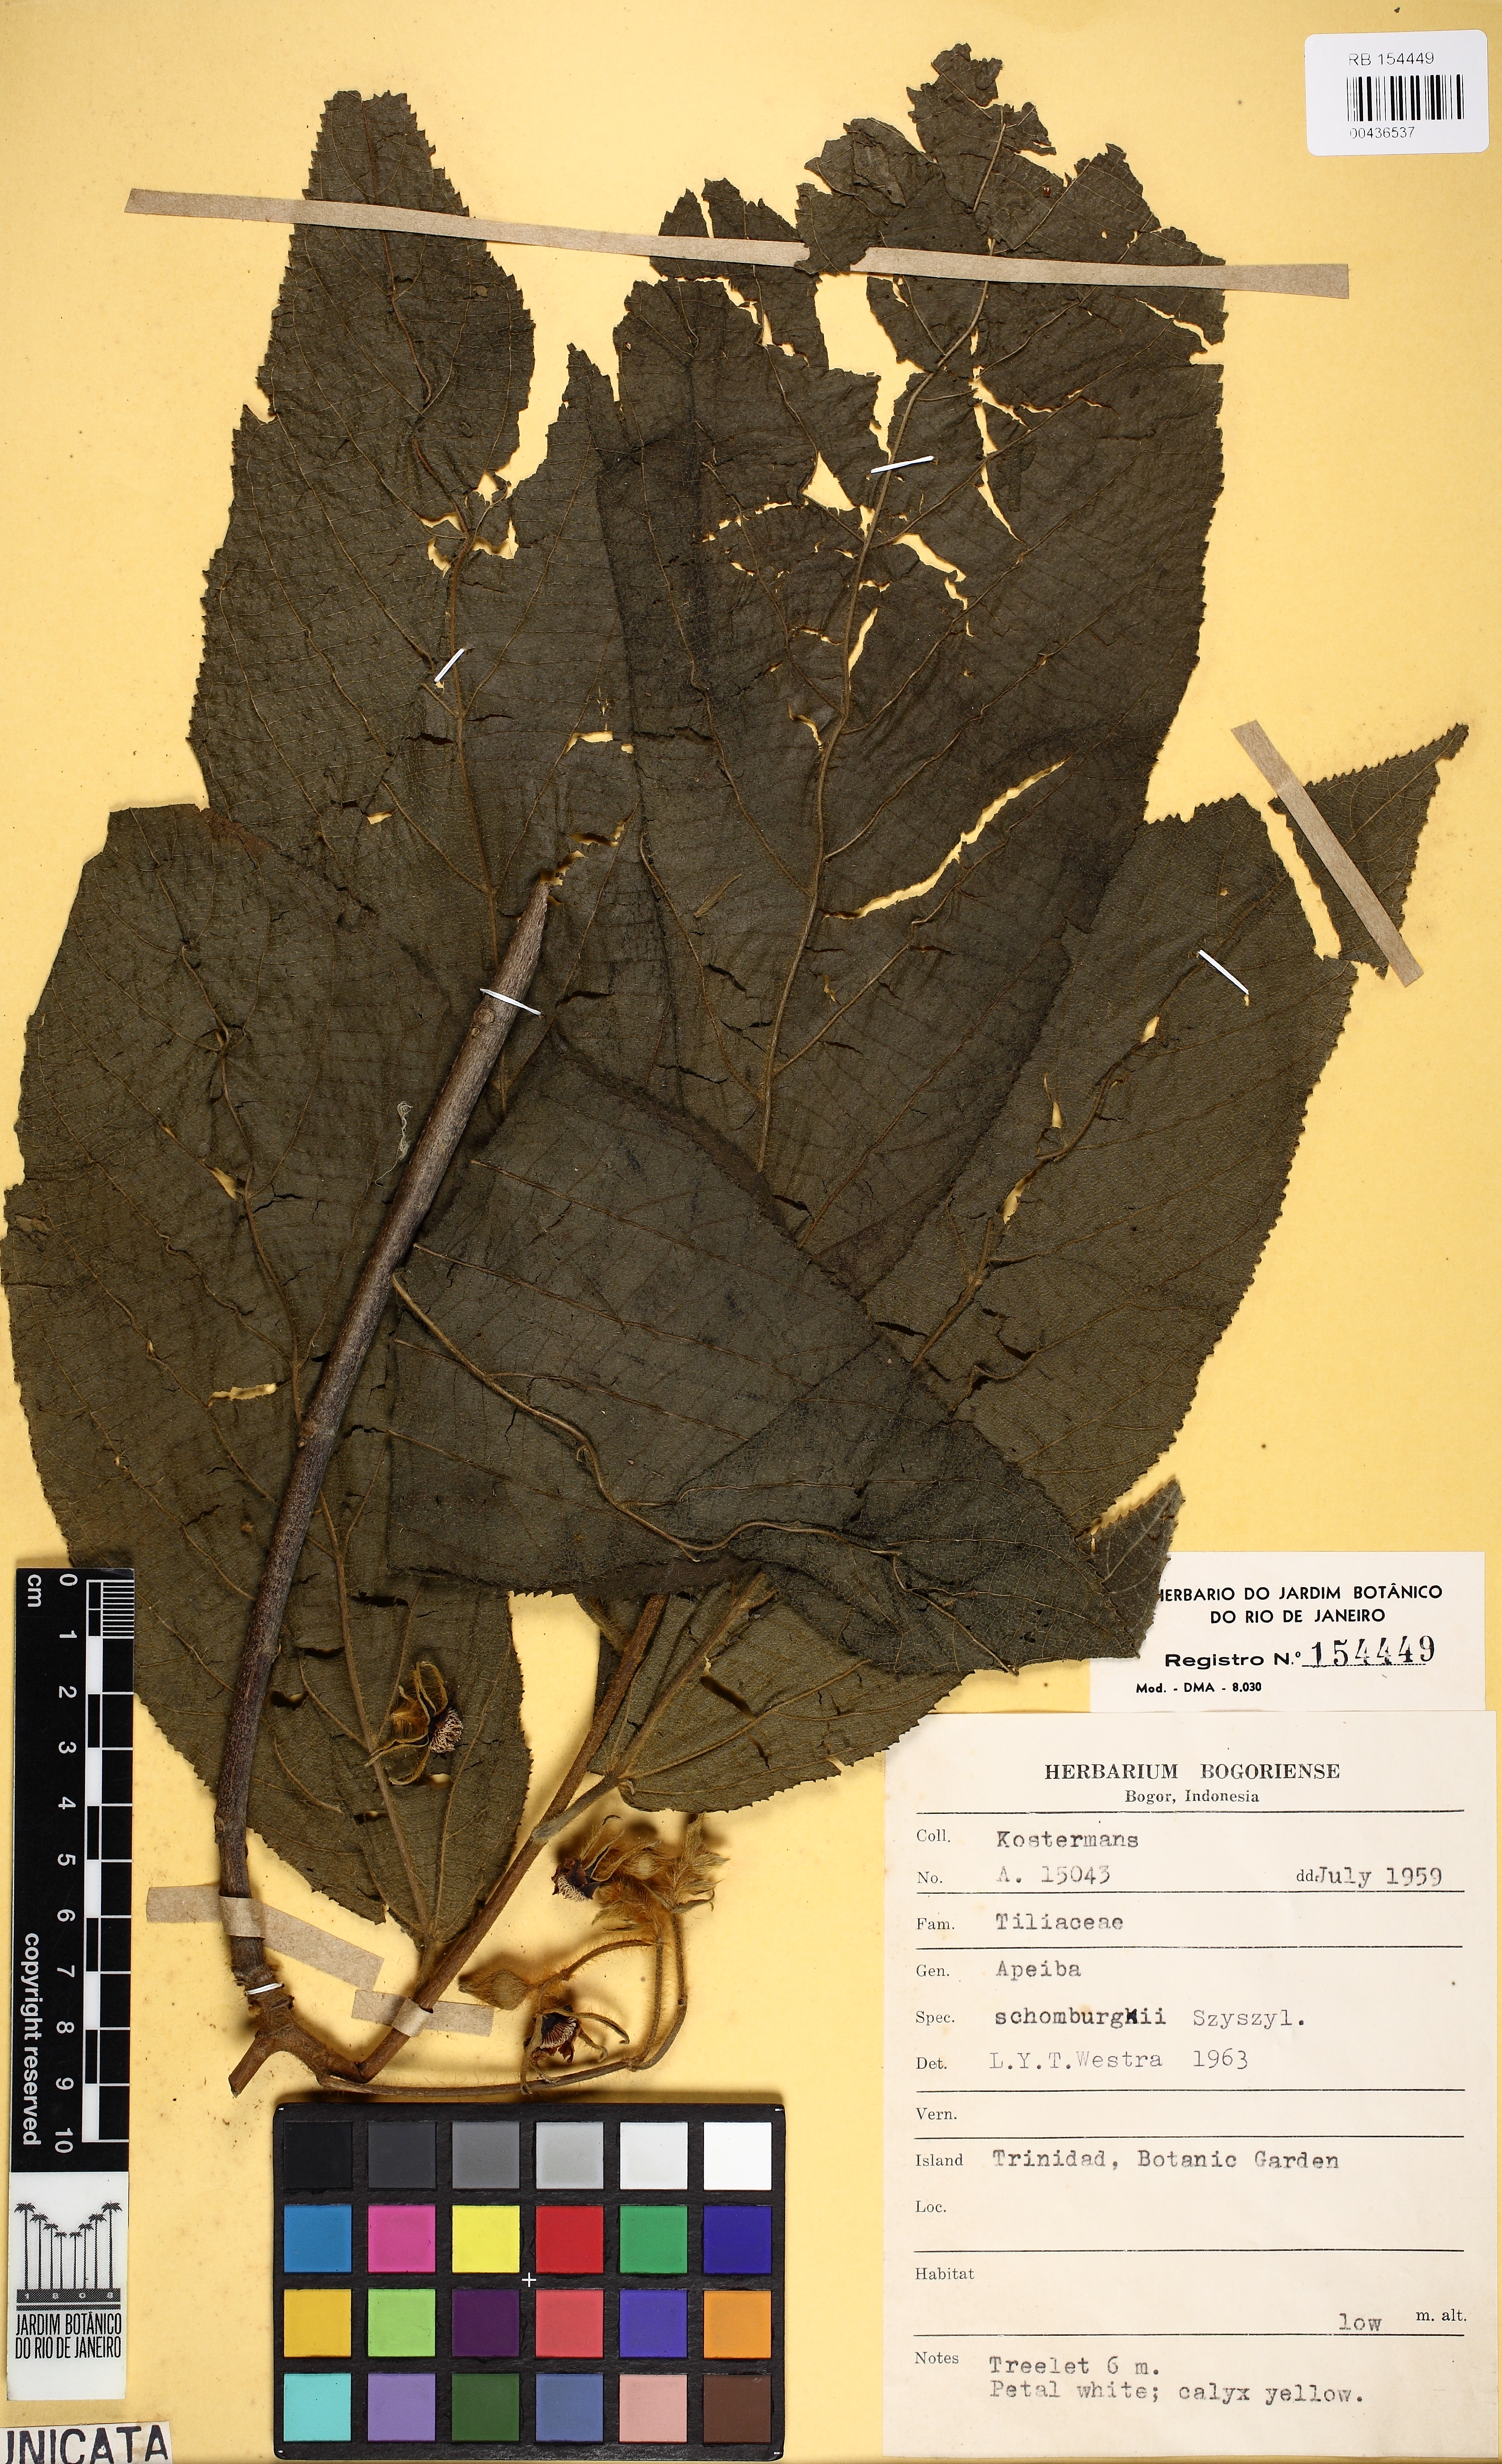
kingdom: Plantae
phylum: Tracheophyta
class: Magnoliopsida
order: Malvales
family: Malvaceae
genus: Apeiba
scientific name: Apeiba schomburgkii
